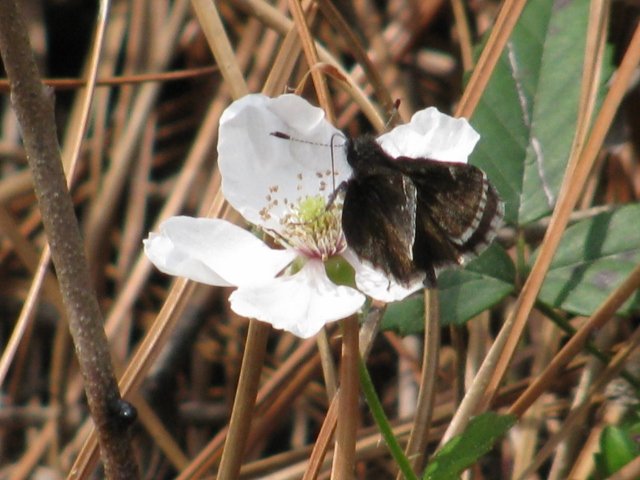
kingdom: Animalia
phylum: Arthropoda
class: Insecta
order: Lepidoptera
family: Hesperiidae
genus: Mastor
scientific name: Mastor alternata
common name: Dusky Roadside-Skipper
